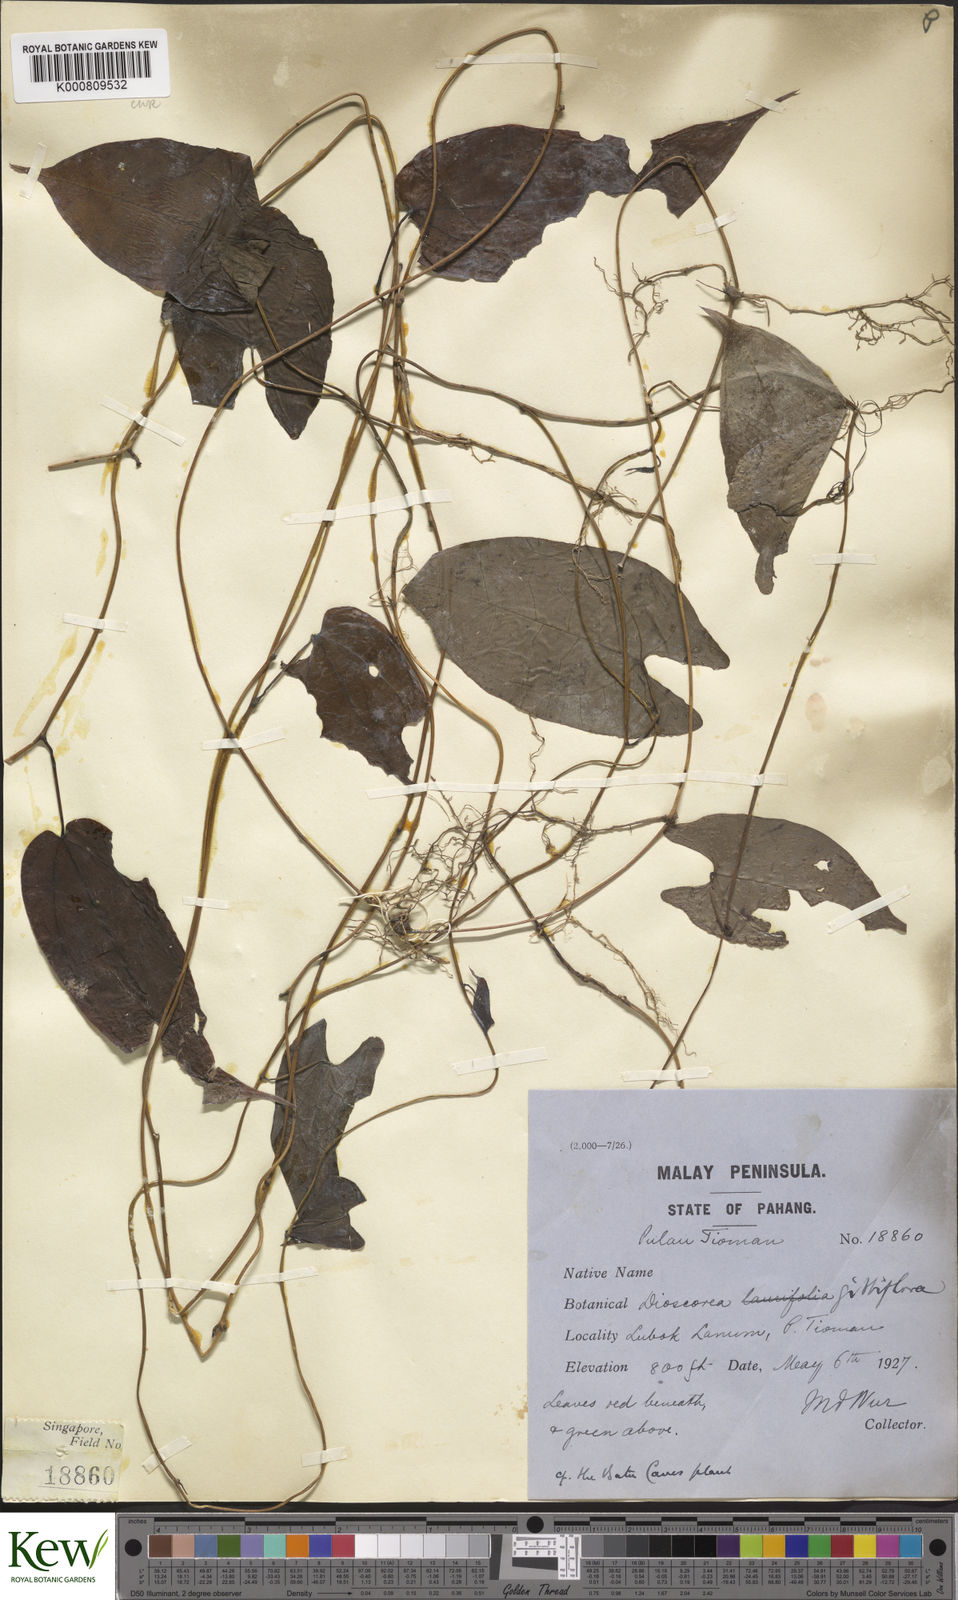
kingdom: Plantae
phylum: Tracheophyta
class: Liliopsida
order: Dioscoreales
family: Dioscoreaceae
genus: Dioscorea
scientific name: Dioscorea filiformis
